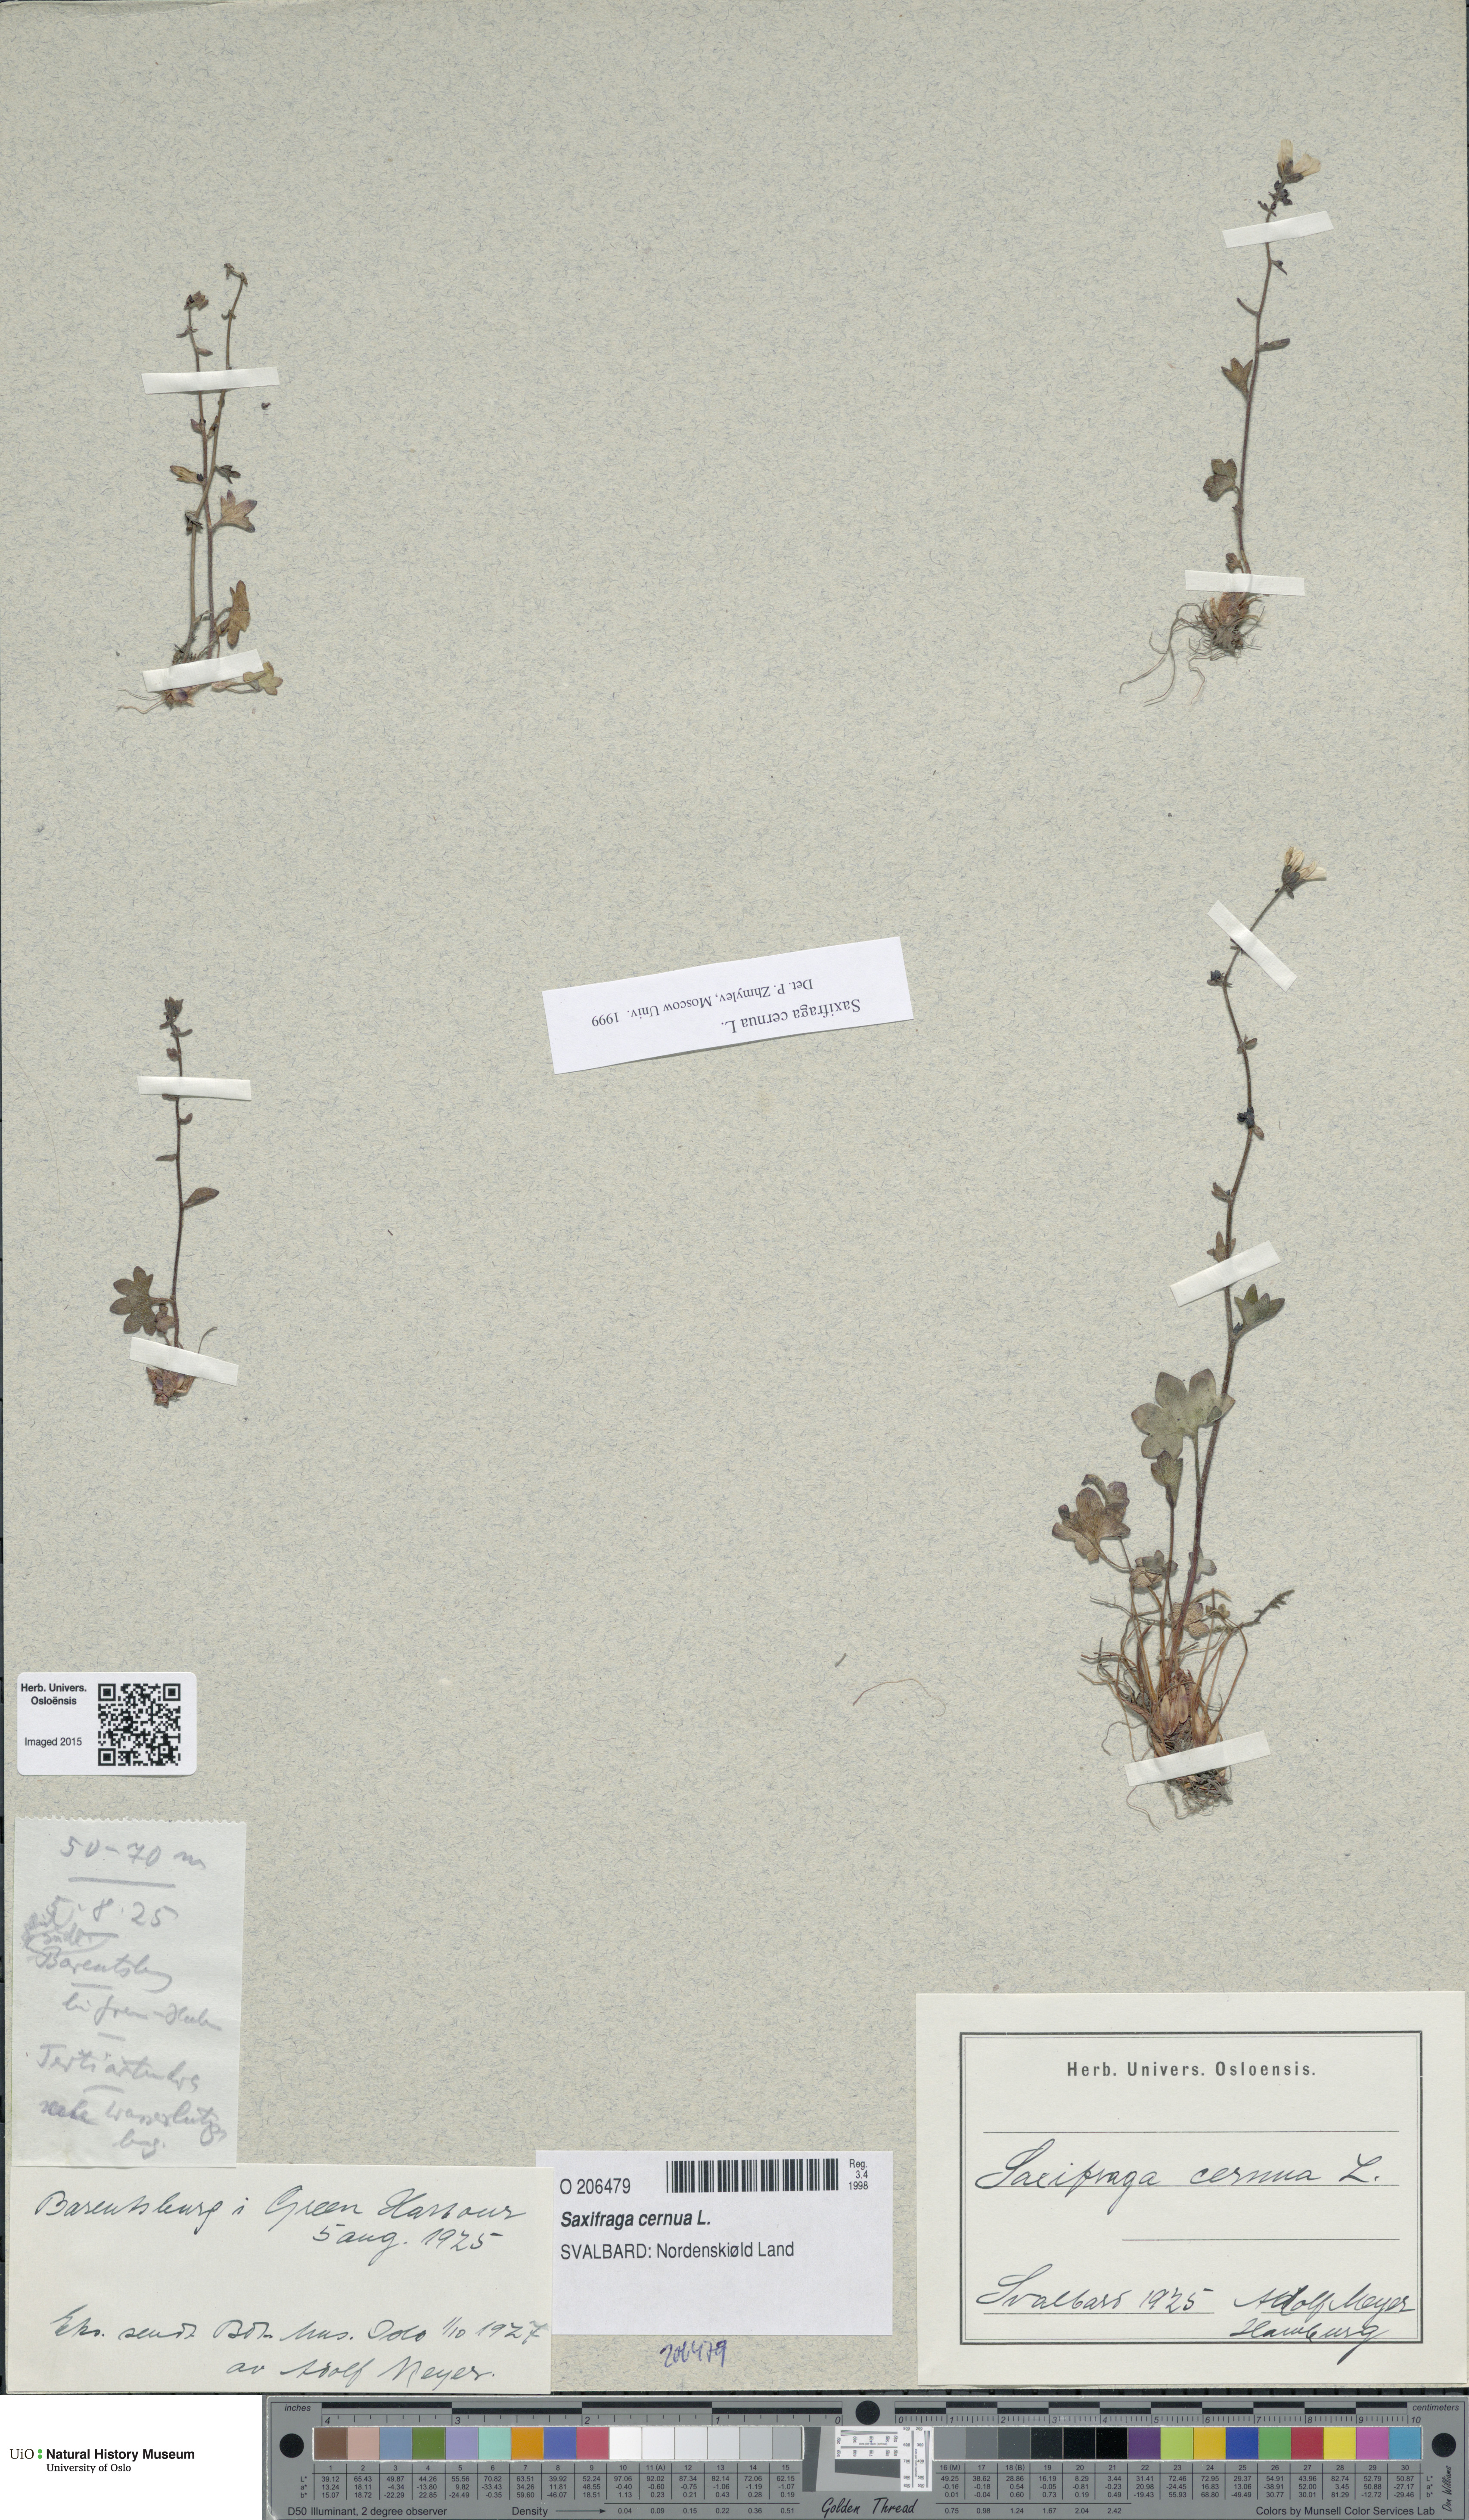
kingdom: Plantae
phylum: Tracheophyta
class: Magnoliopsida
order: Saxifragales
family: Saxifragaceae
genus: Saxifraga
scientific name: Saxifraga cernua
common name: Drooping saxifrage
